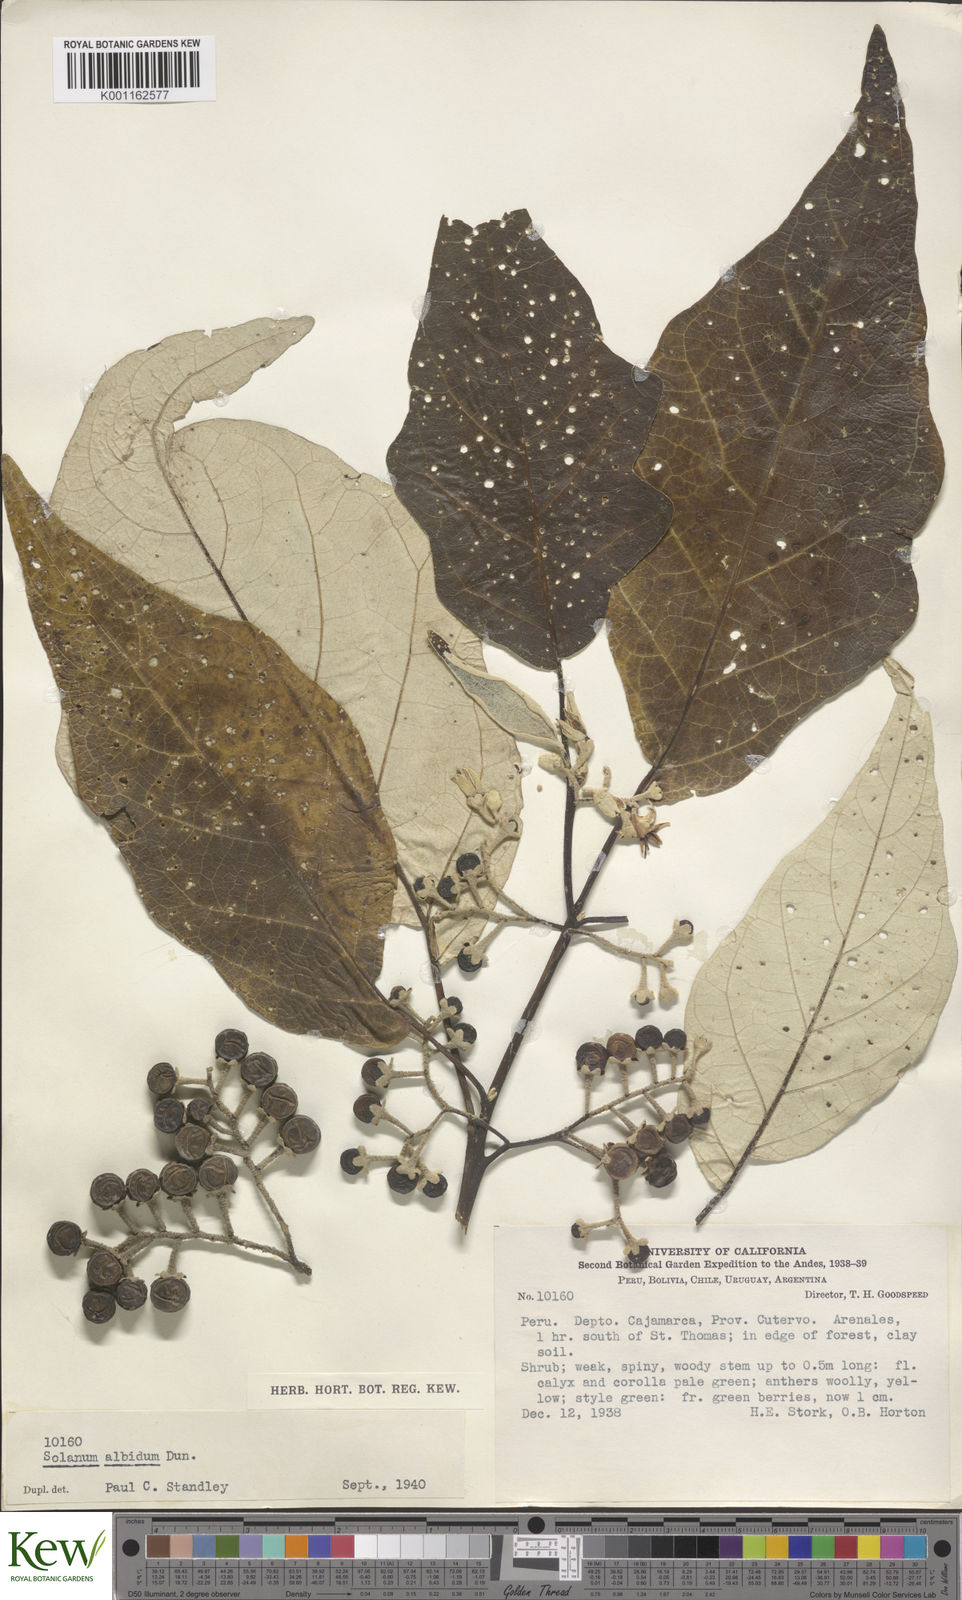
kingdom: Plantae
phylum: Tracheophyta
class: Magnoliopsida
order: Solanales
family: Solanaceae
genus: Solanum
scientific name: Solanum albidum
